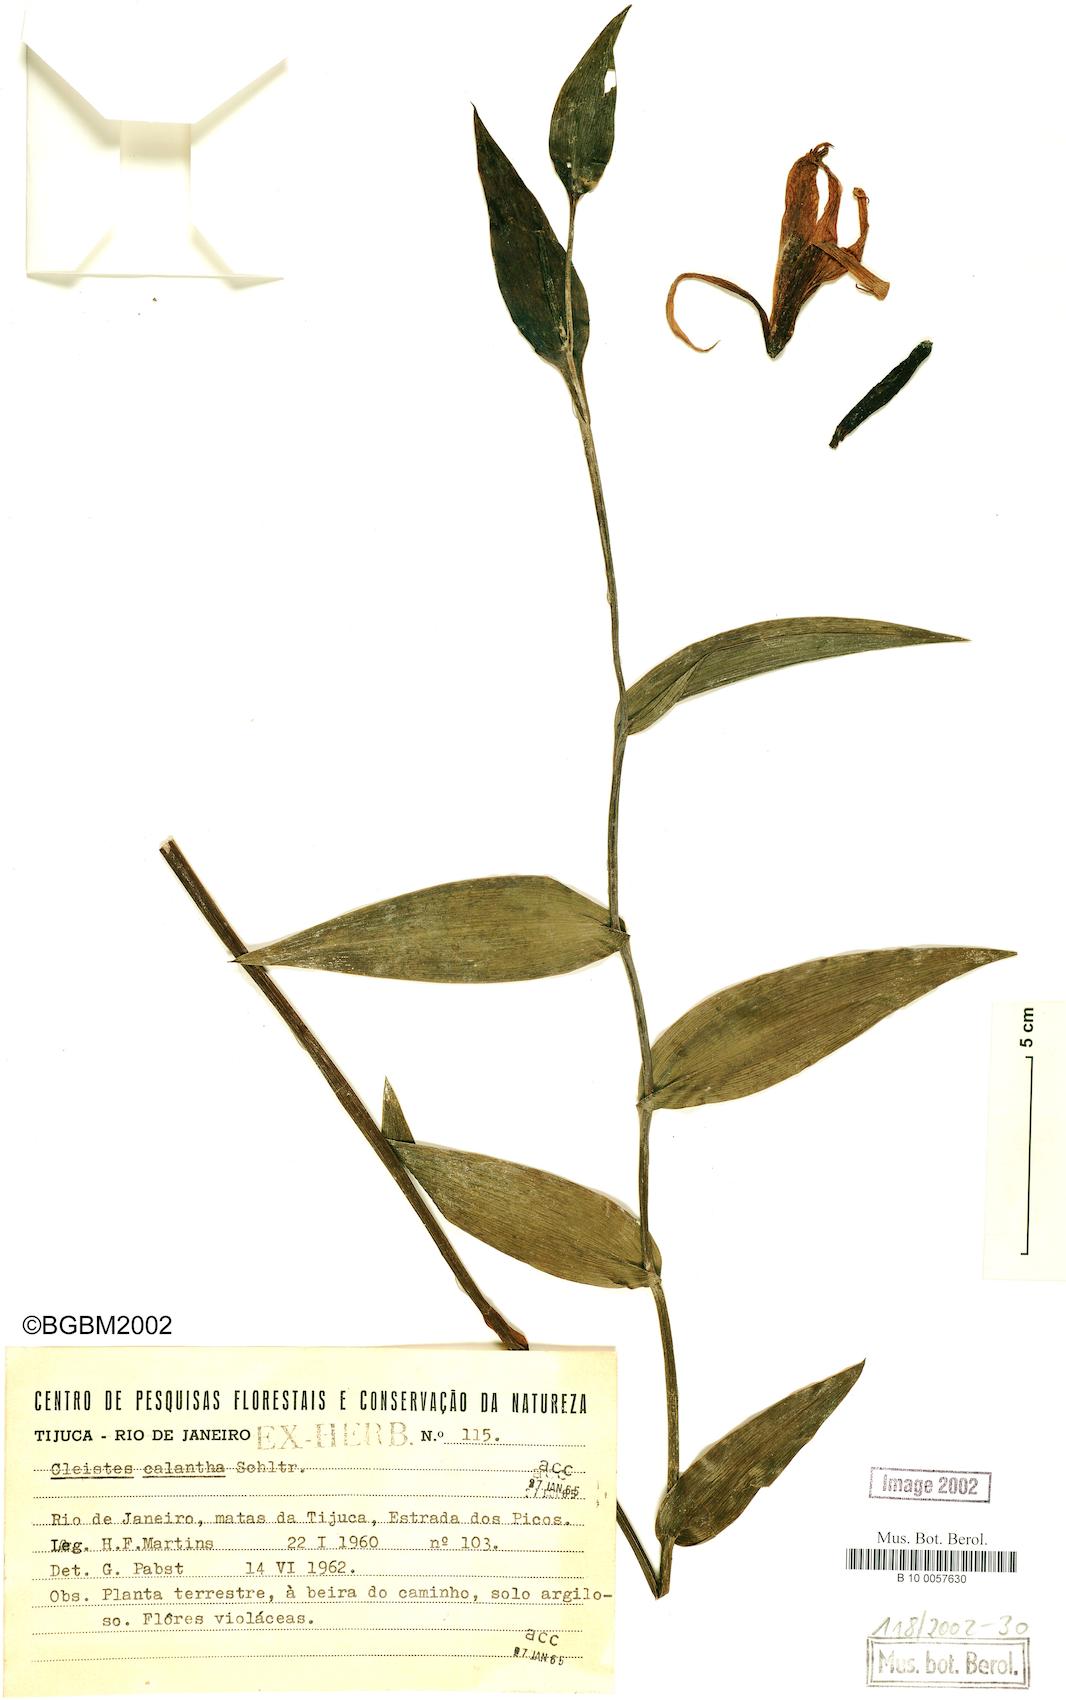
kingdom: Plantae
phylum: Tracheophyta
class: Liliopsida
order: Asparagales
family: Orchidaceae
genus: Cleistes
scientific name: Cleistes calantha
